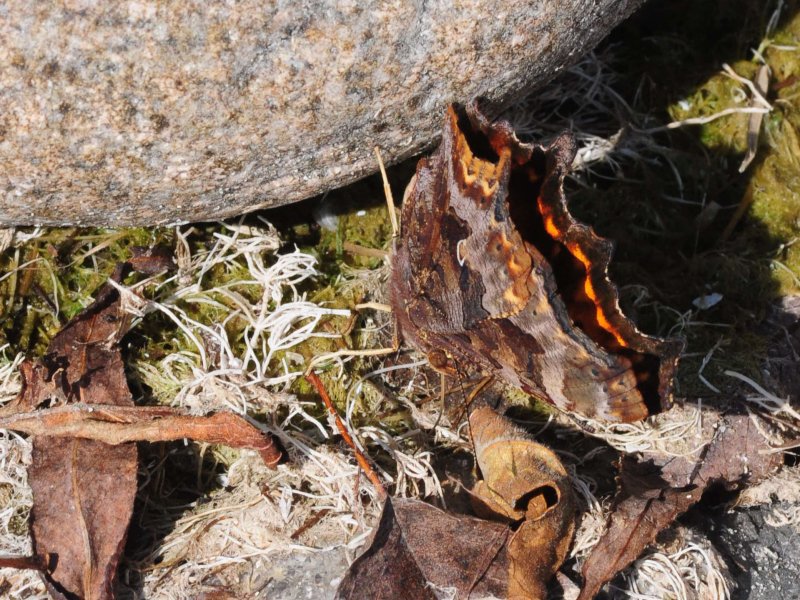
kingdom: Animalia
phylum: Arthropoda
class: Insecta
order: Lepidoptera
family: Nymphalidae
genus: Polygonia
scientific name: Polygonia comma
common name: Eastern Comma
